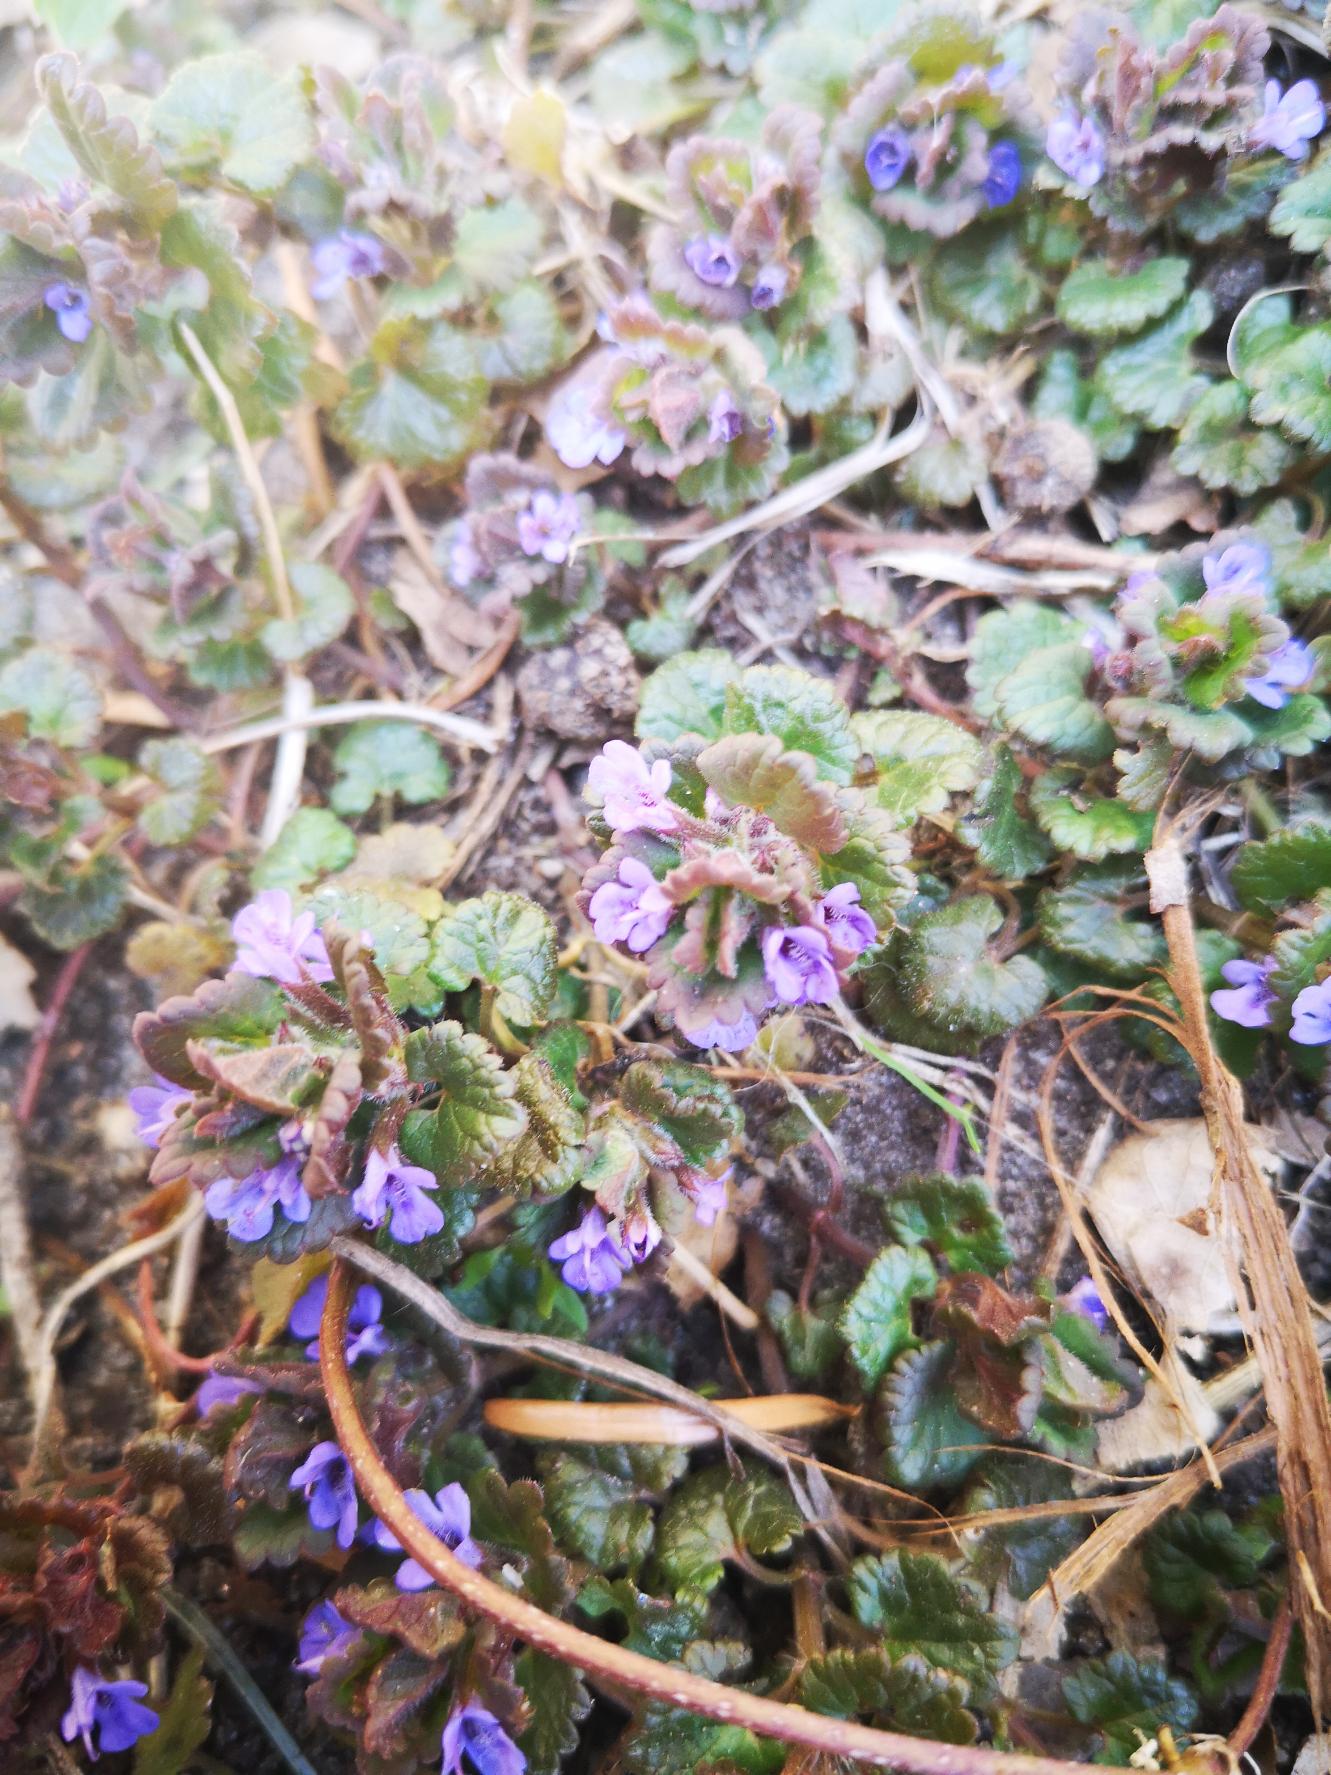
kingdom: Plantae
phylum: Tracheophyta
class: Magnoliopsida
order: Lamiales
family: Lamiaceae
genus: Glechoma
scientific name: Glechoma hederacea
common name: Korsknap
